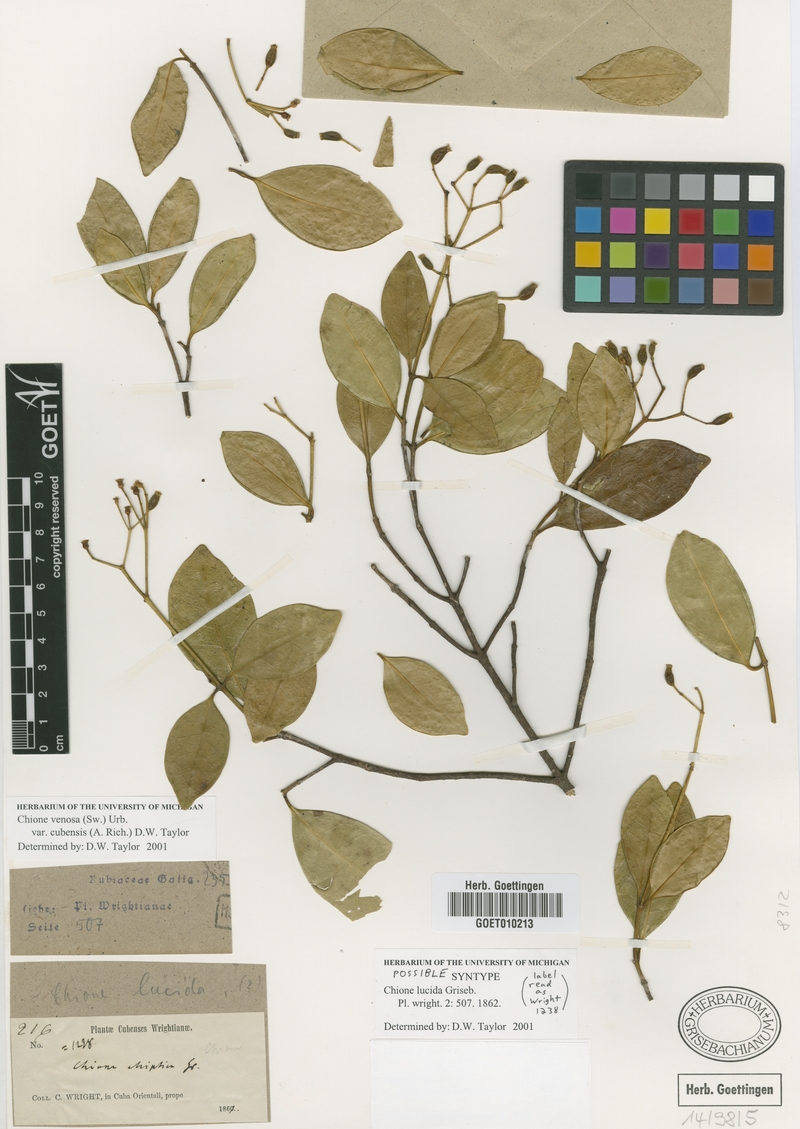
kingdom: Plantae
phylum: Tracheophyta
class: Magnoliopsida
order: Gentianales
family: Rubiaceae
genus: Chione
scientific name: Chione venosa
